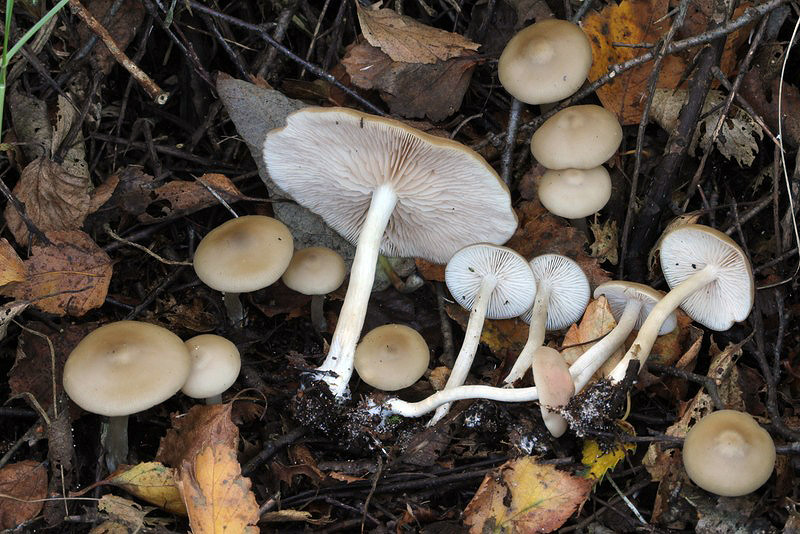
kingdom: Fungi
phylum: Basidiomycota
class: Agaricomycetes
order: Agaricales
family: Entolomataceae
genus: Entoloma
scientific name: Entoloma
